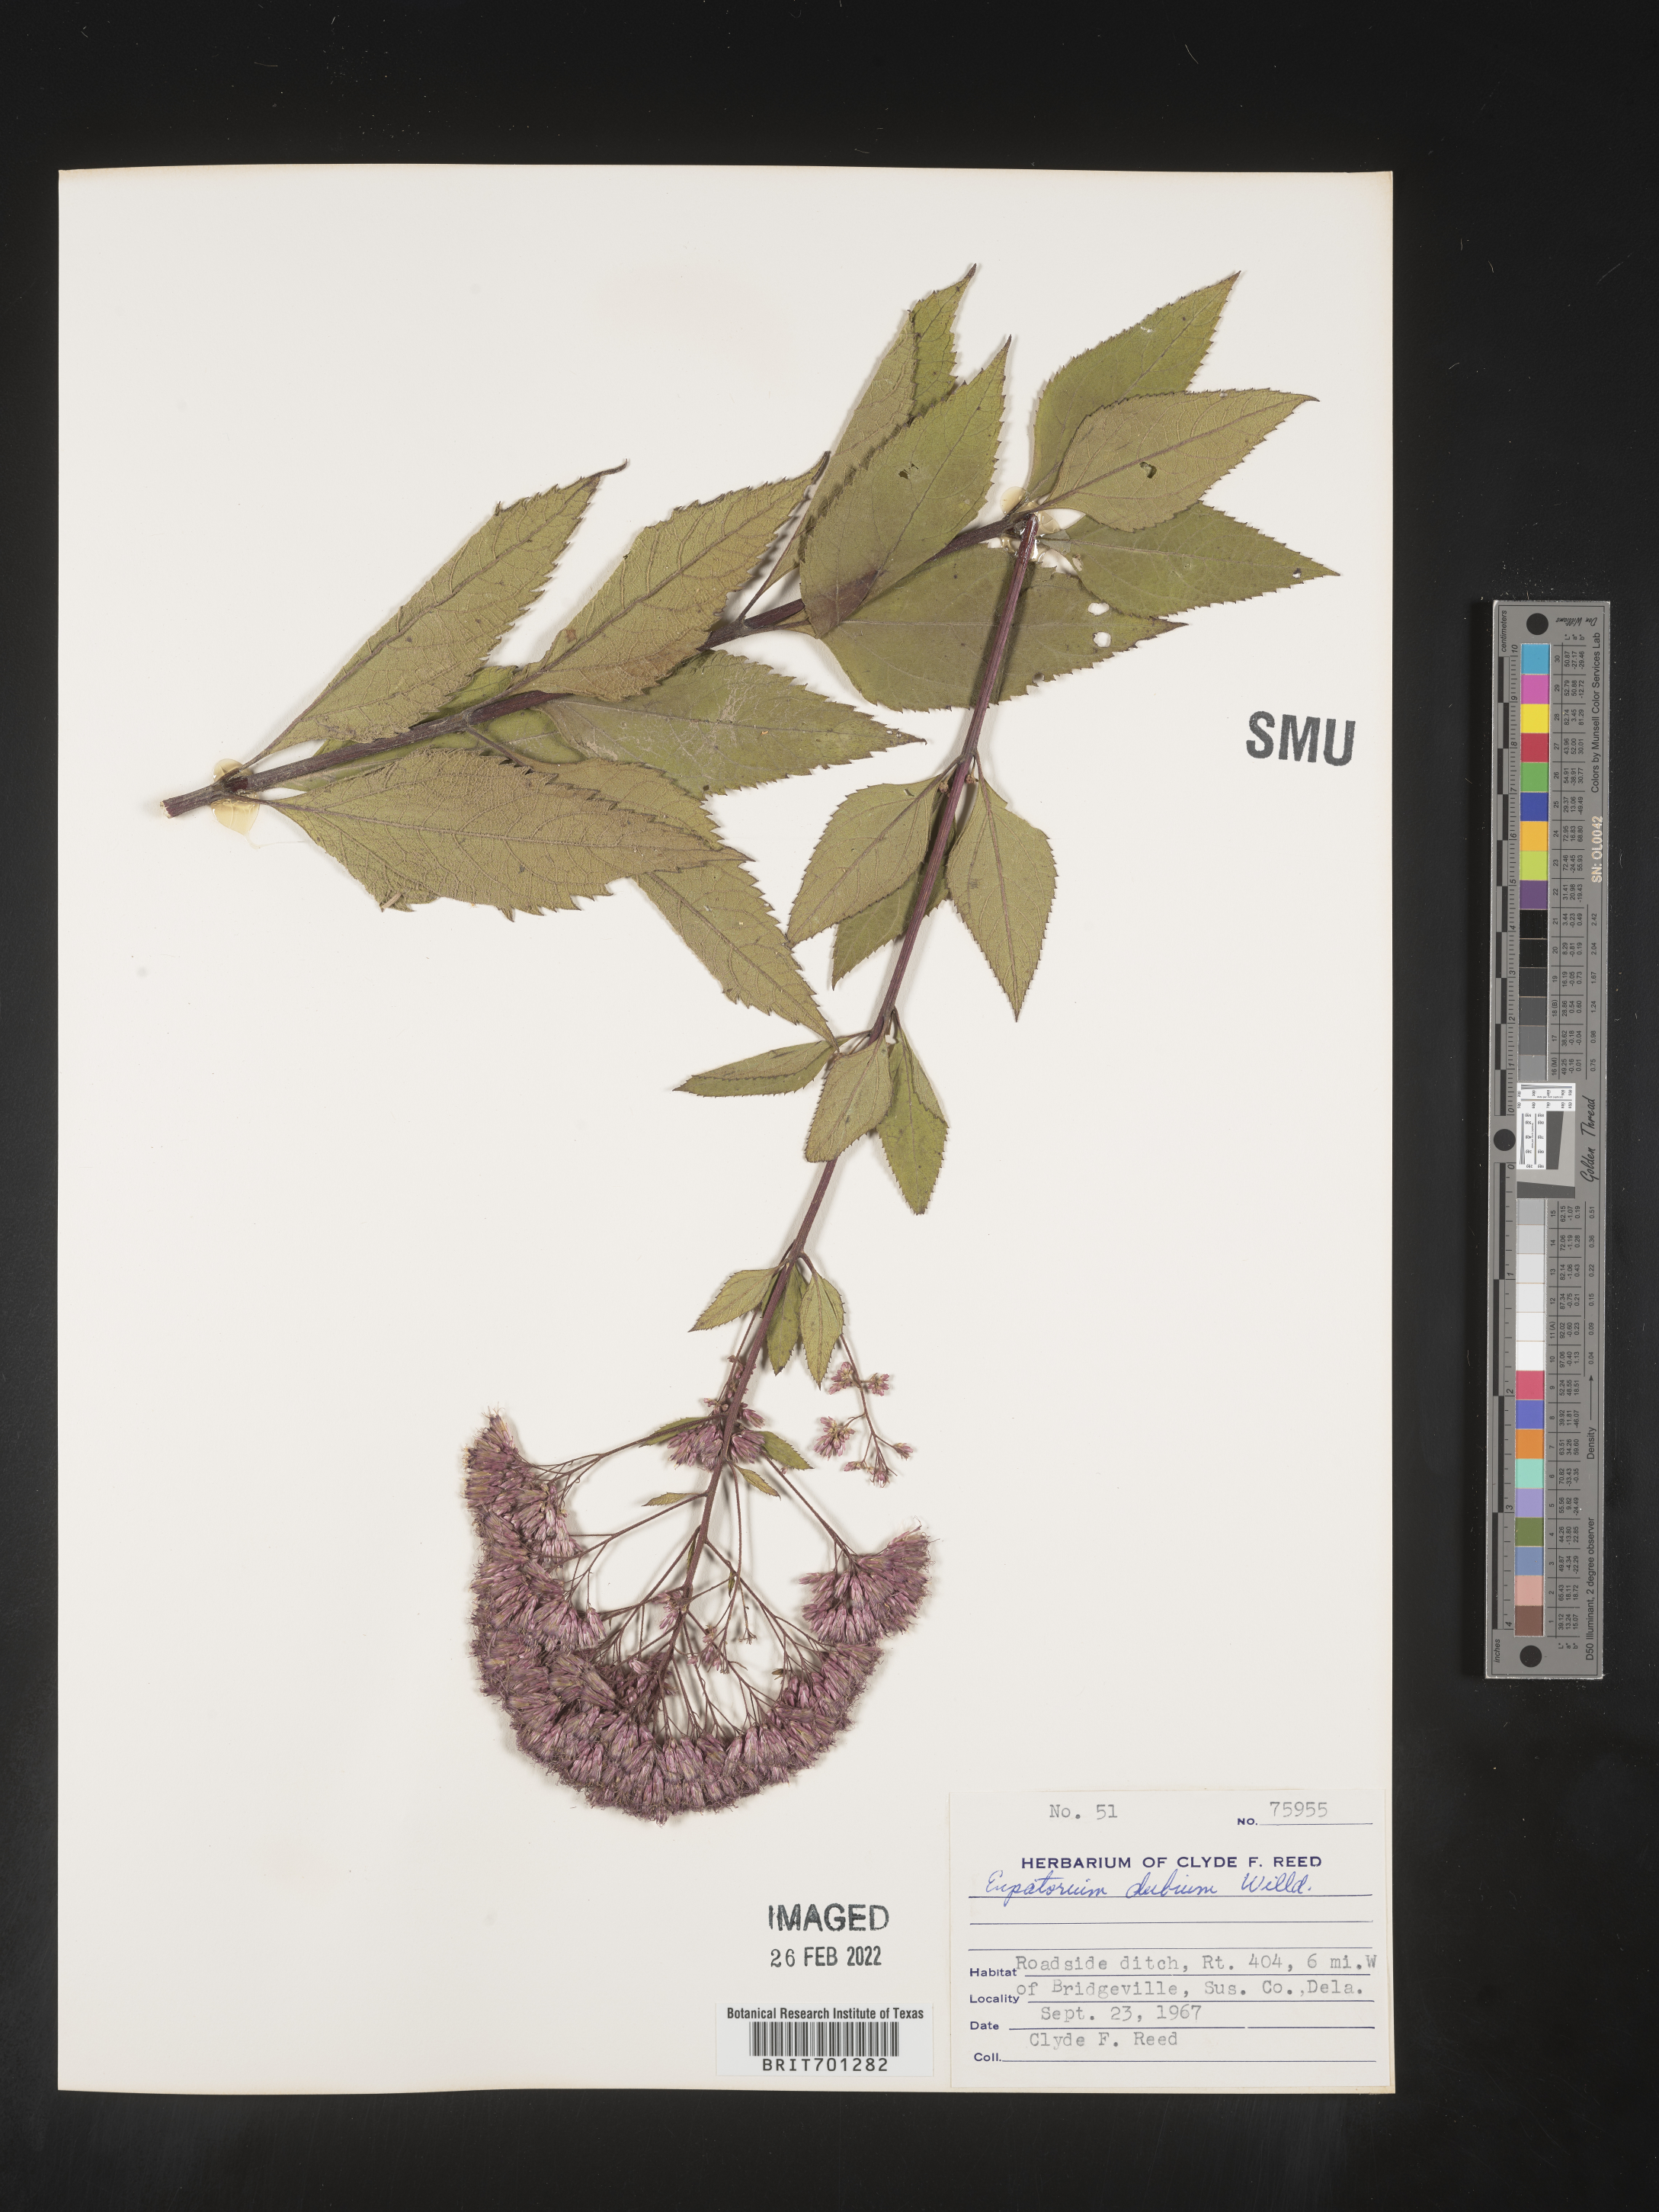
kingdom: Plantae
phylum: Tracheophyta
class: Magnoliopsida
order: Asterales
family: Asteraceae
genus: Eutrochium
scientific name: Eutrochium dubium
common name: Coastal plain joe pye weed
